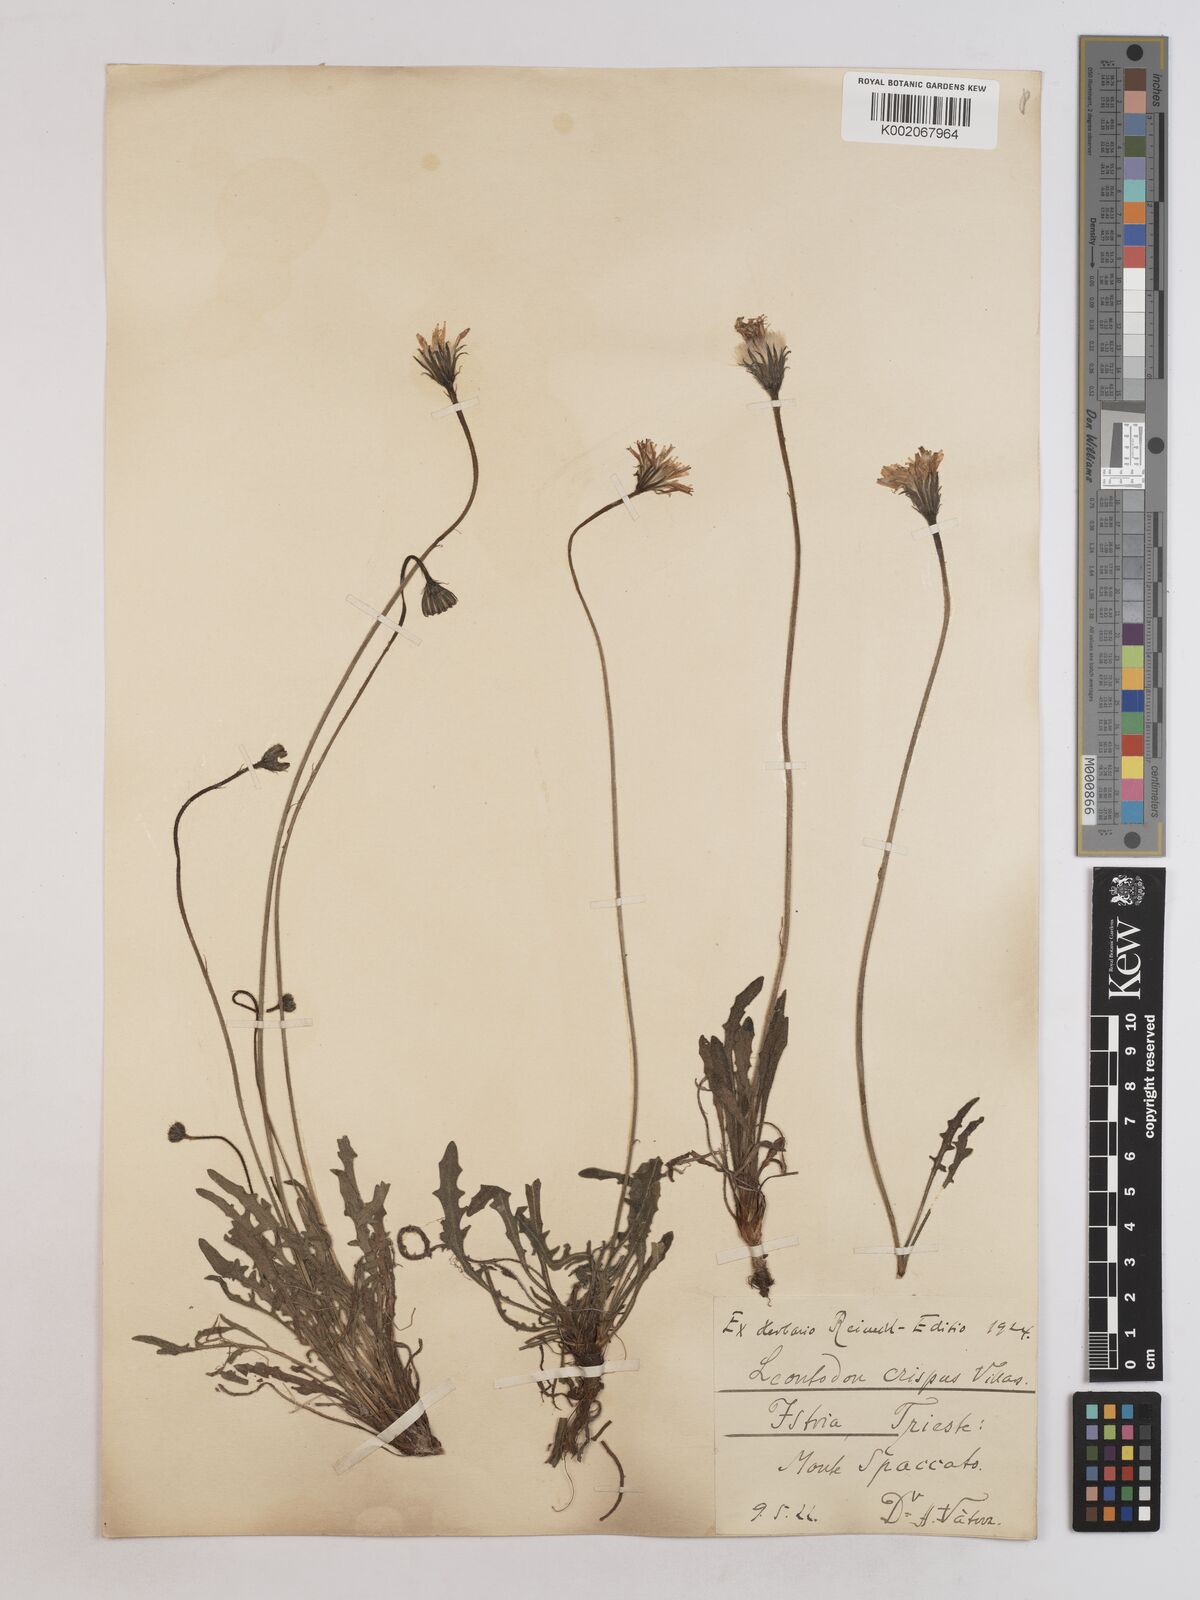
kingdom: Plantae
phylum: Tracheophyta
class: Magnoliopsida
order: Asterales
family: Asteraceae
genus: Leontodon
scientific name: Leontodon crispus
